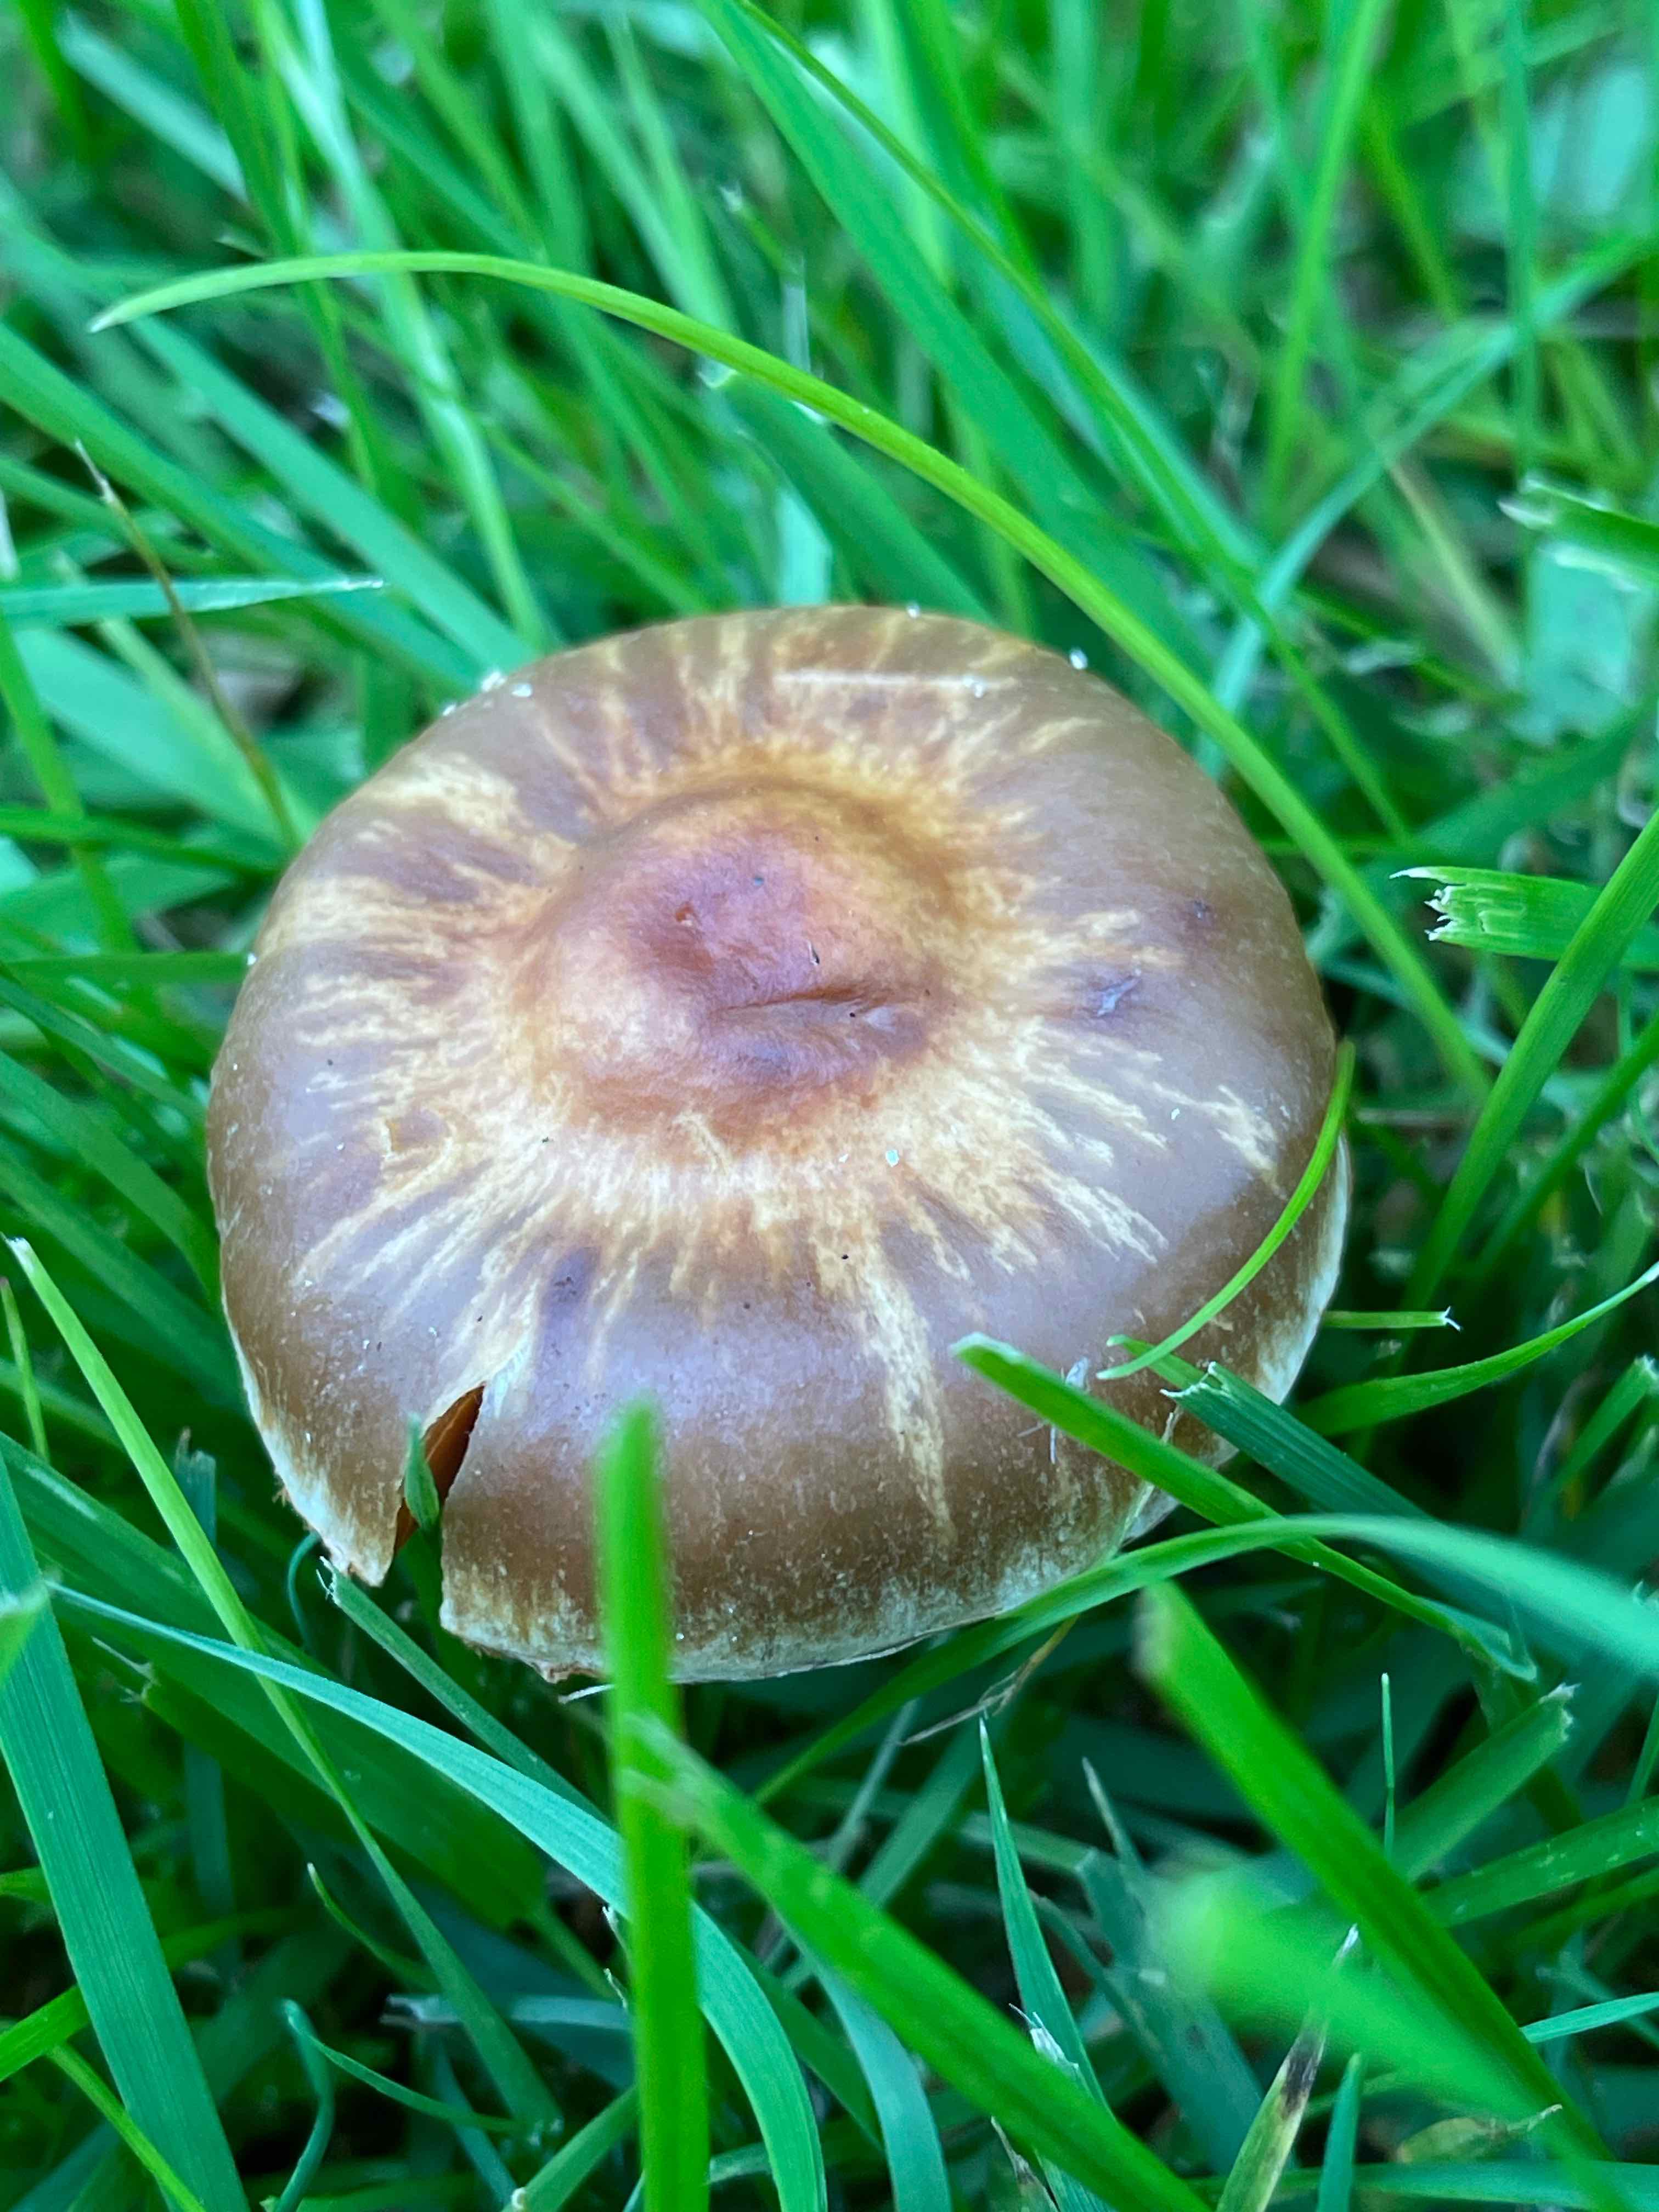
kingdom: Fungi
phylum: Basidiomycota
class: Agaricomycetes
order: Agaricales
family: Cortinariaceae
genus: Cortinarius
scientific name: Cortinarius
